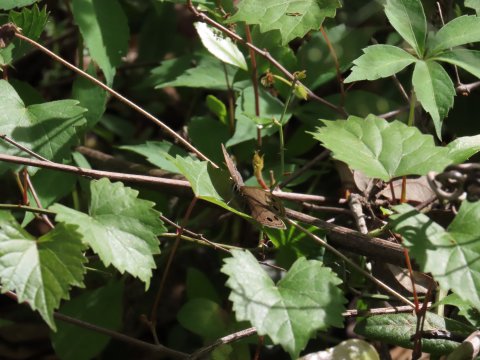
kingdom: Animalia
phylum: Arthropoda
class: Insecta
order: Lepidoptera
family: Nymphalidae
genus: Euptychia
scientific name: Euptychia cymela
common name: Little Wood Satyr
